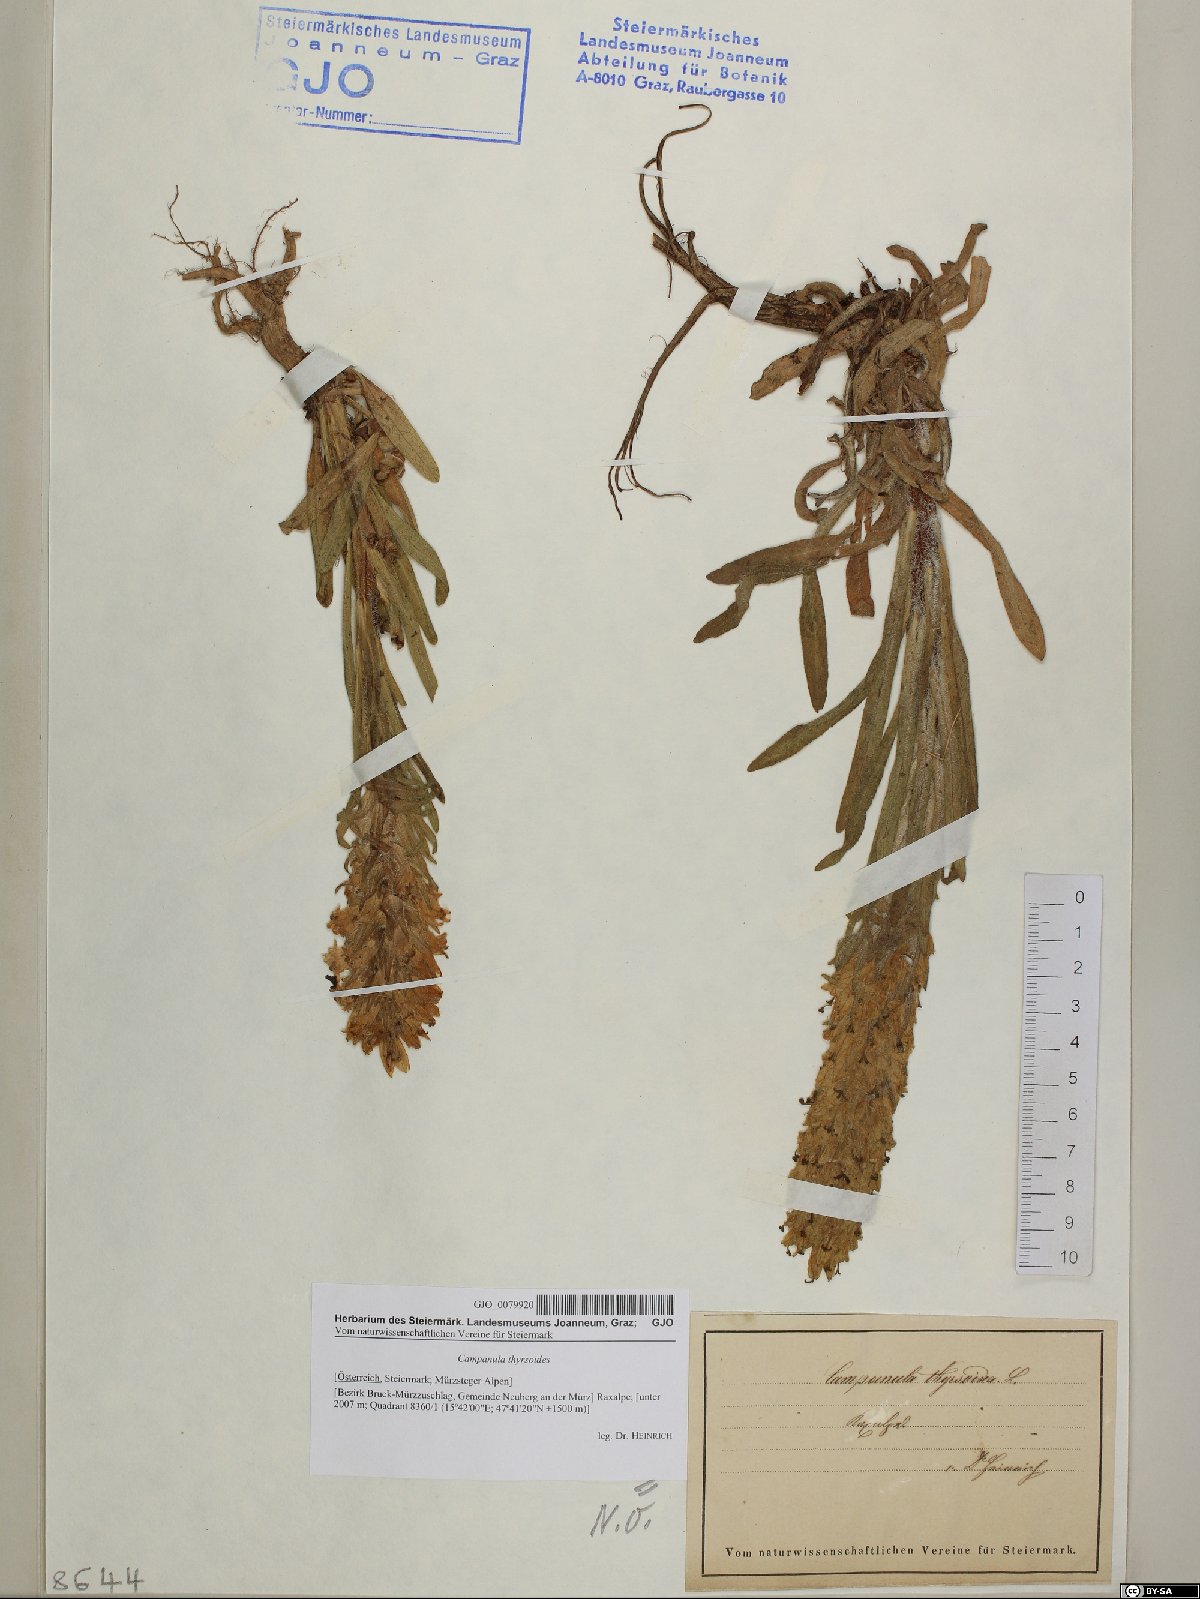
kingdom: Plantae
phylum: Tracheophyta
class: Magnoliopsida
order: Asterales
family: Campanulaceae
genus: Campanula
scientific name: Campanula thyrsoides
